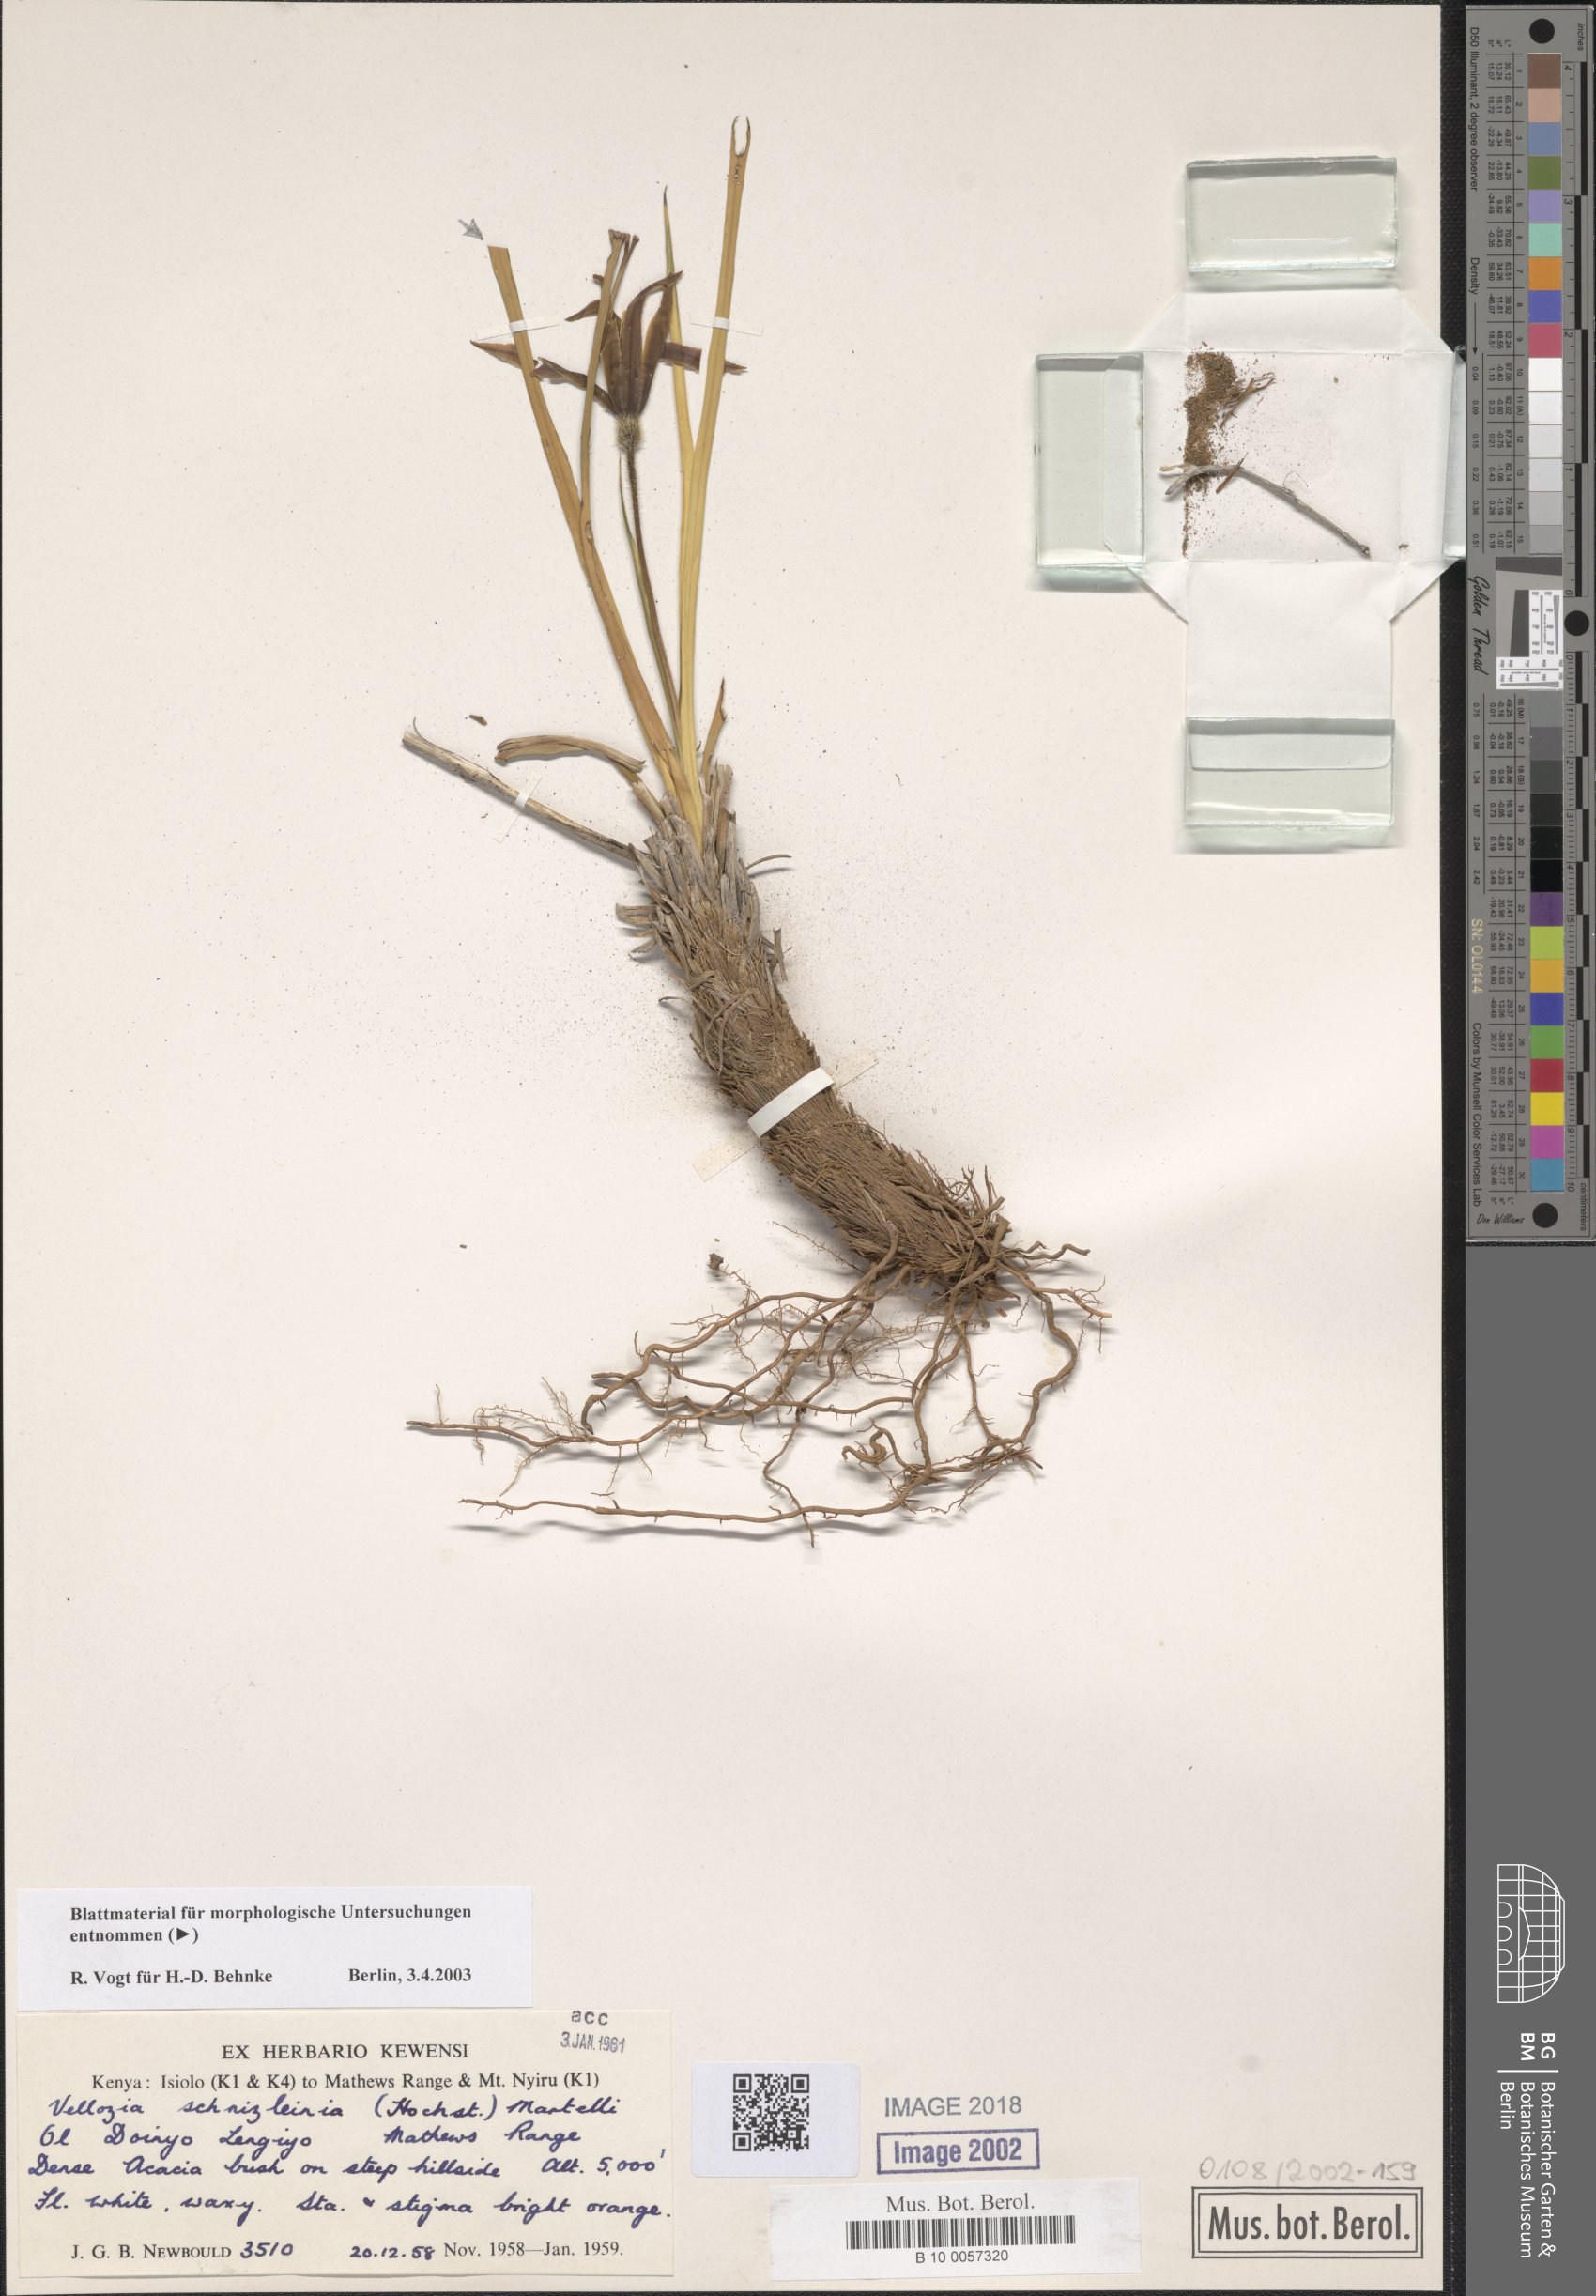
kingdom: Plantae
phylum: Tracheophyta
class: Liliopsida
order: Pandanales
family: Velloziaceae
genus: Xerophyta
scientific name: Xerophyta schnizleinia
